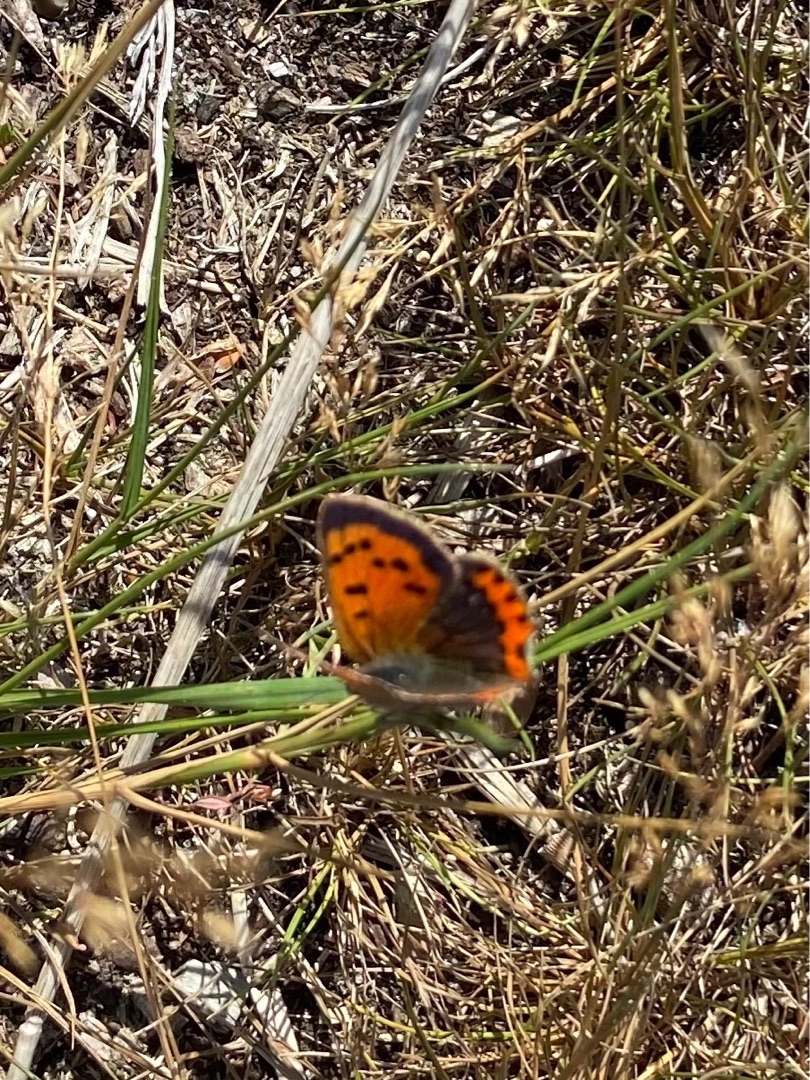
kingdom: Animalia
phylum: Arthropoda
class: Insecta
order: Lepidoptera
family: Lycaenidae
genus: Lycaena
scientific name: Lycaena phlaeas
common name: Lille ildfugl
